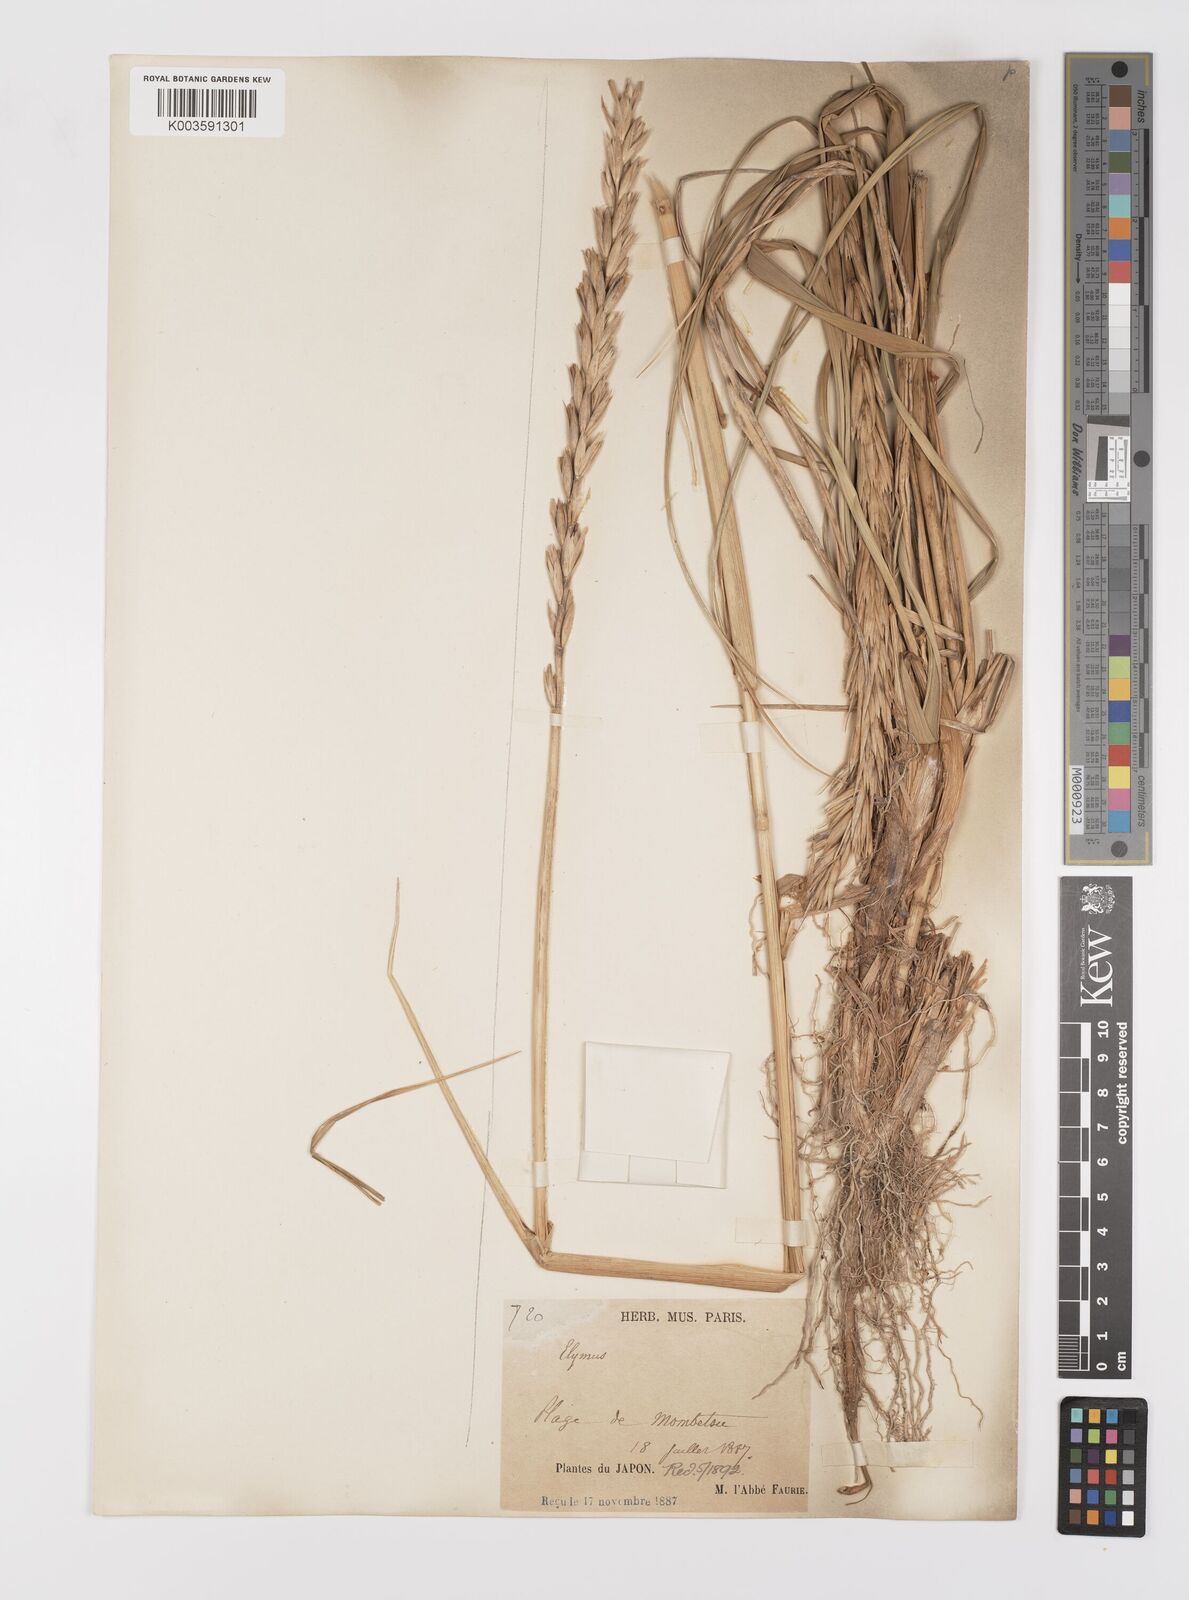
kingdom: Plantae
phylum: Tracheophyta
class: Liliopsida
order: Poales
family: Poaceae
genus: Leymus
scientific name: Leymus
